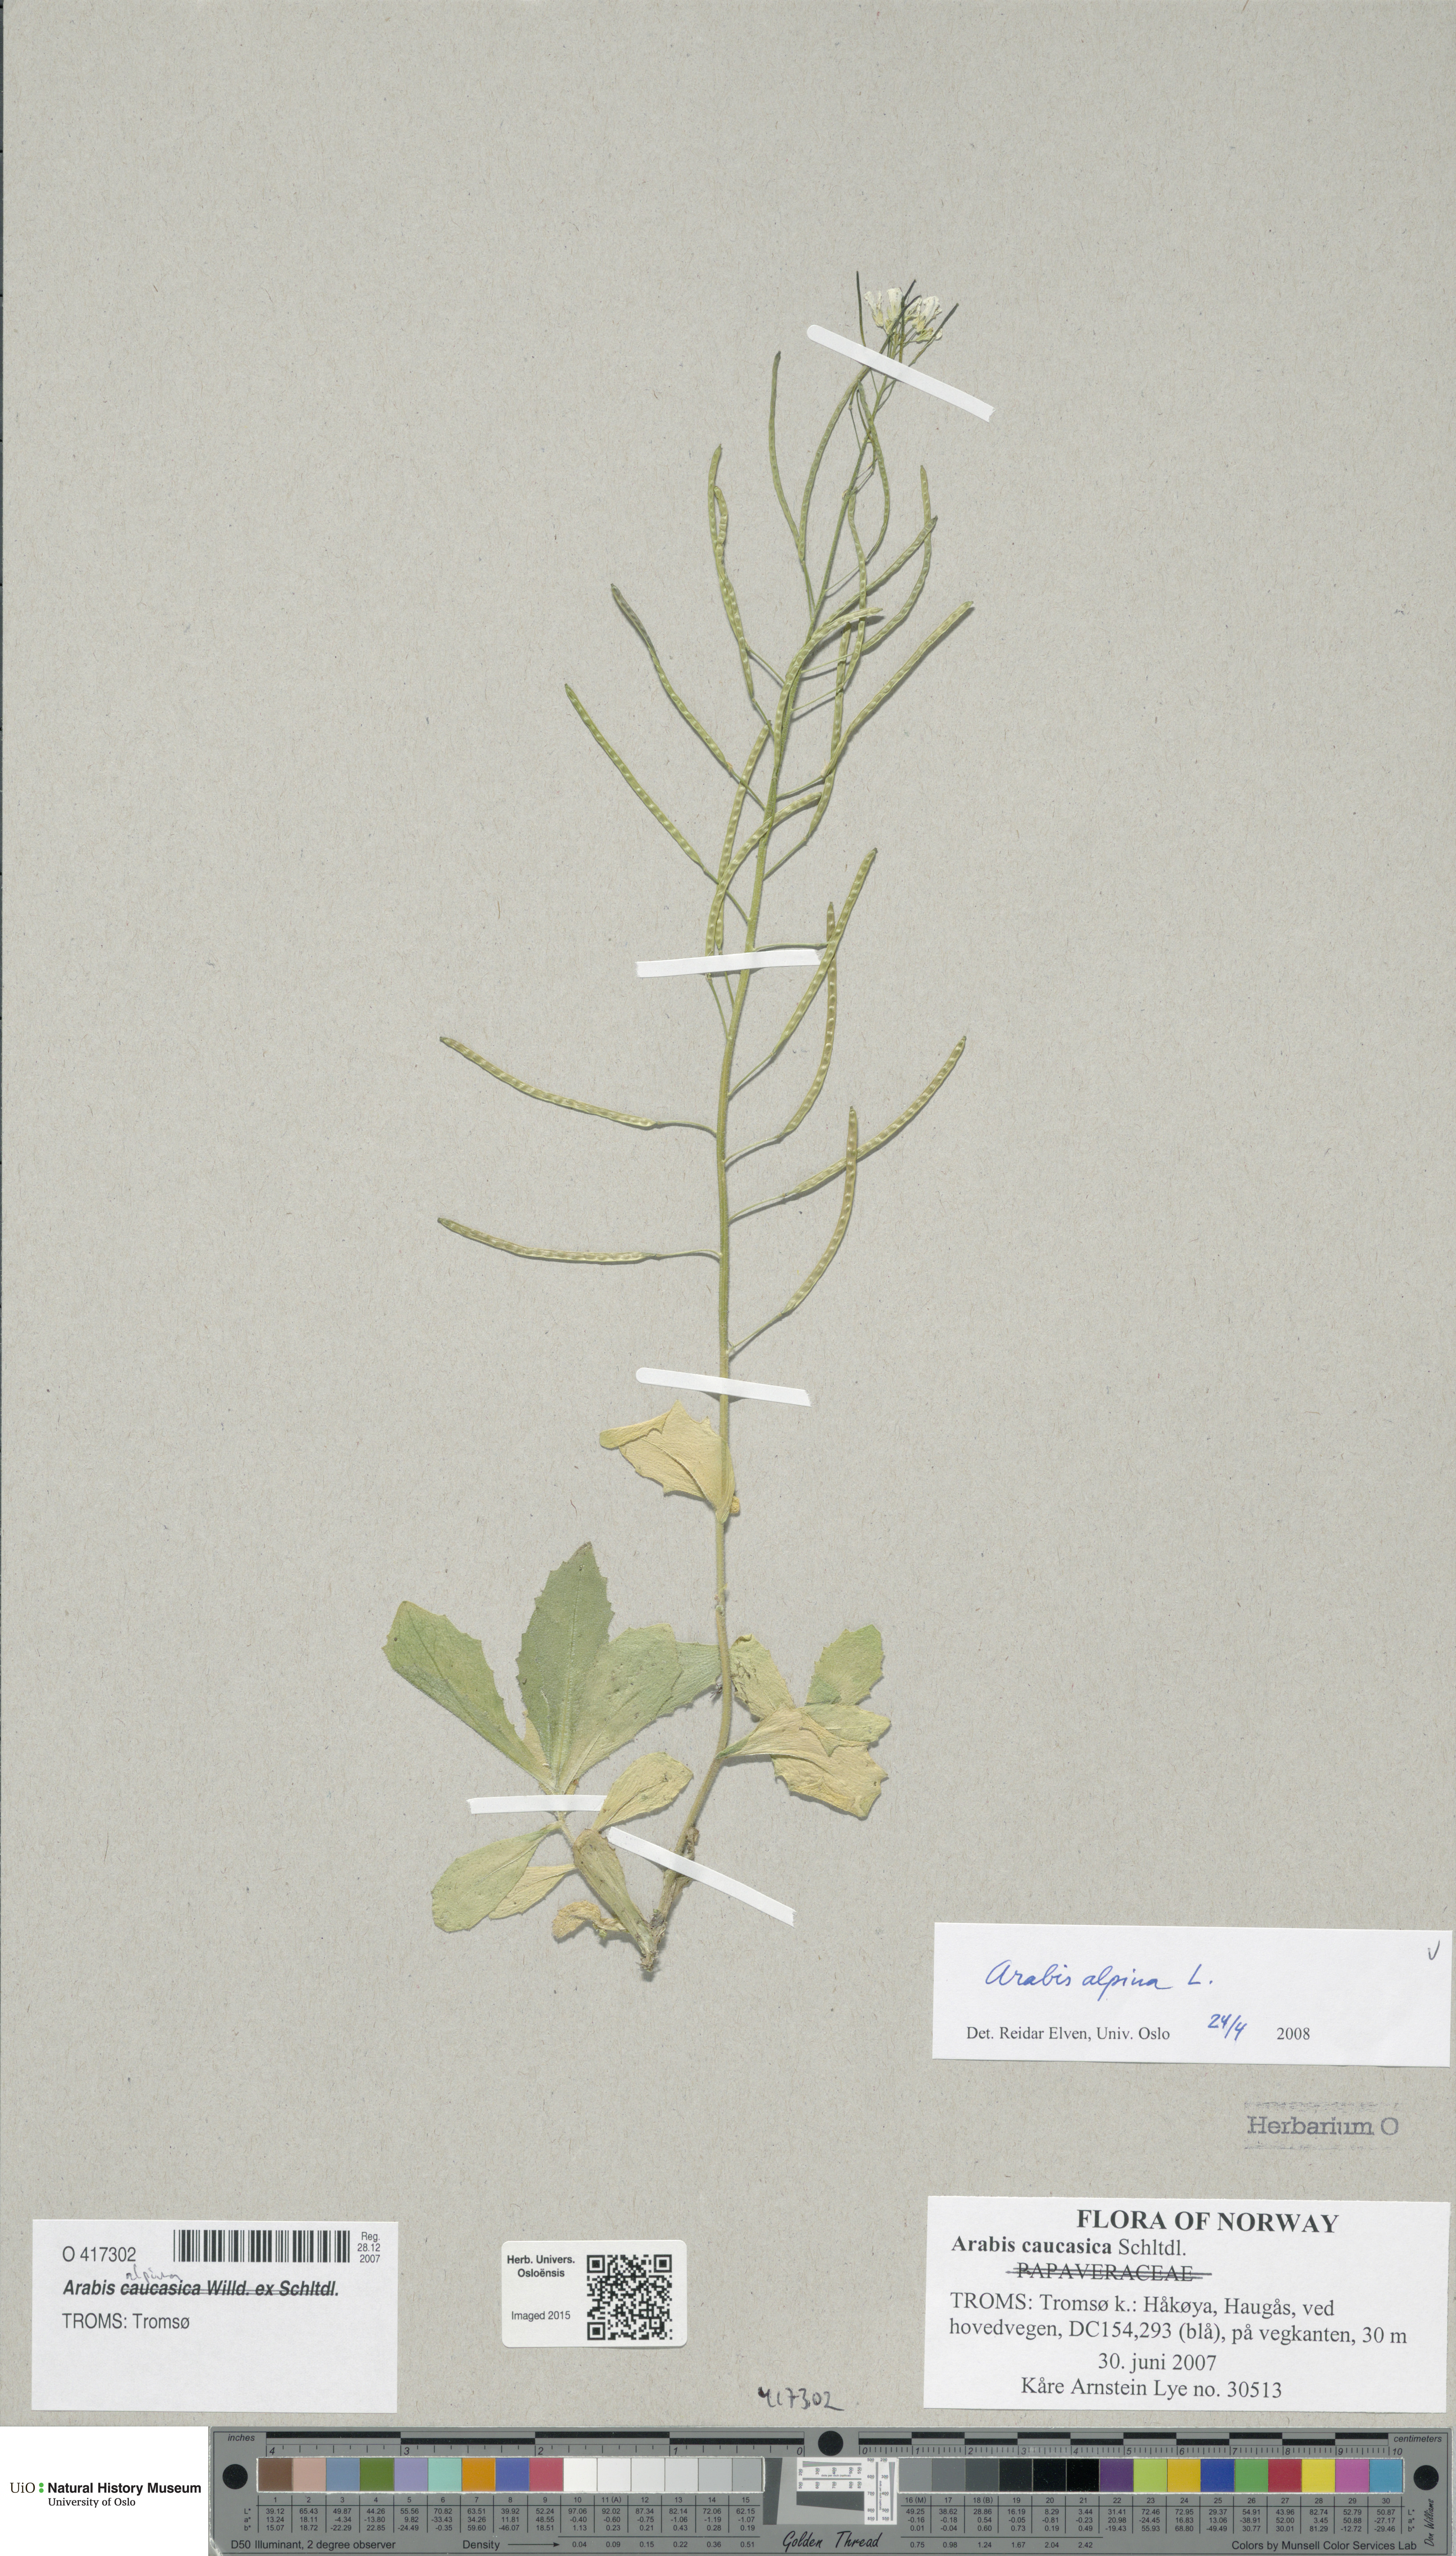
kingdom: Plantae
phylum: Tracheophyta
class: Magnoliopsida
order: Brassicales
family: Brassicaceae
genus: Arabis
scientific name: Arabis alpina
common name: Alpine rock-cress
